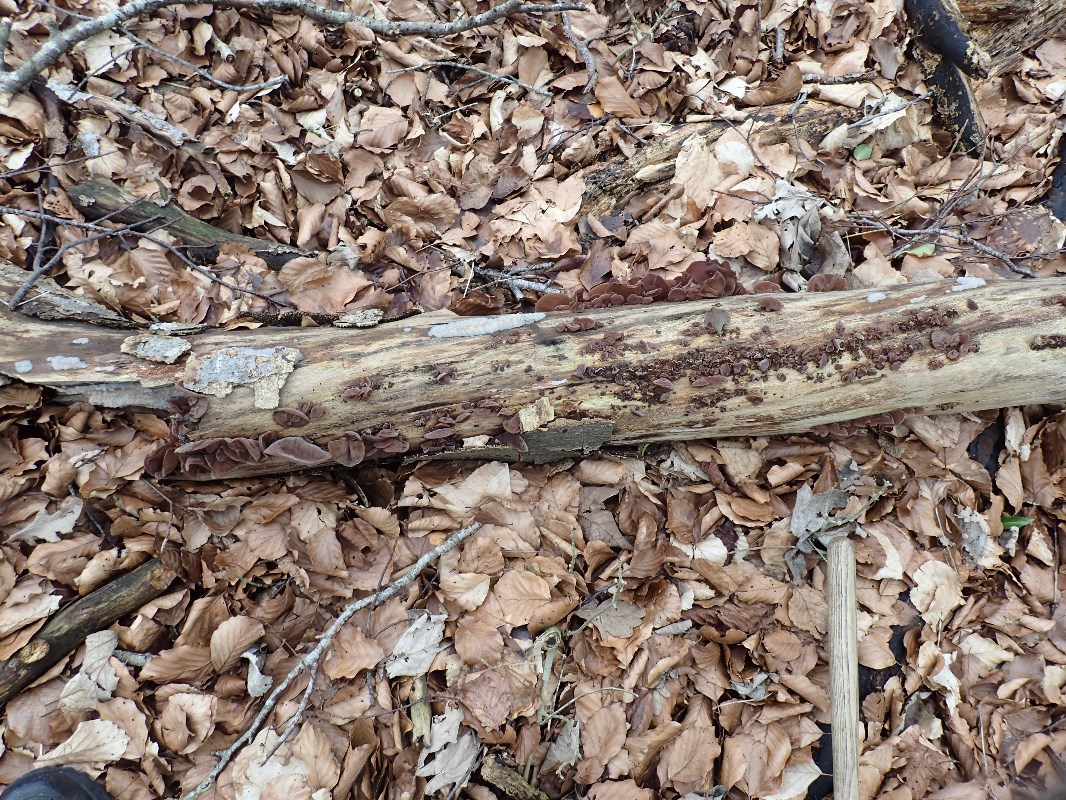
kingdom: Fungi
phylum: Basidiomycota
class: Agaricomycetes
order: Auriculariales
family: Auriculariaceae
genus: Auricularia
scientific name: Auricularia auricula-judae
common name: almindelig judasøre
